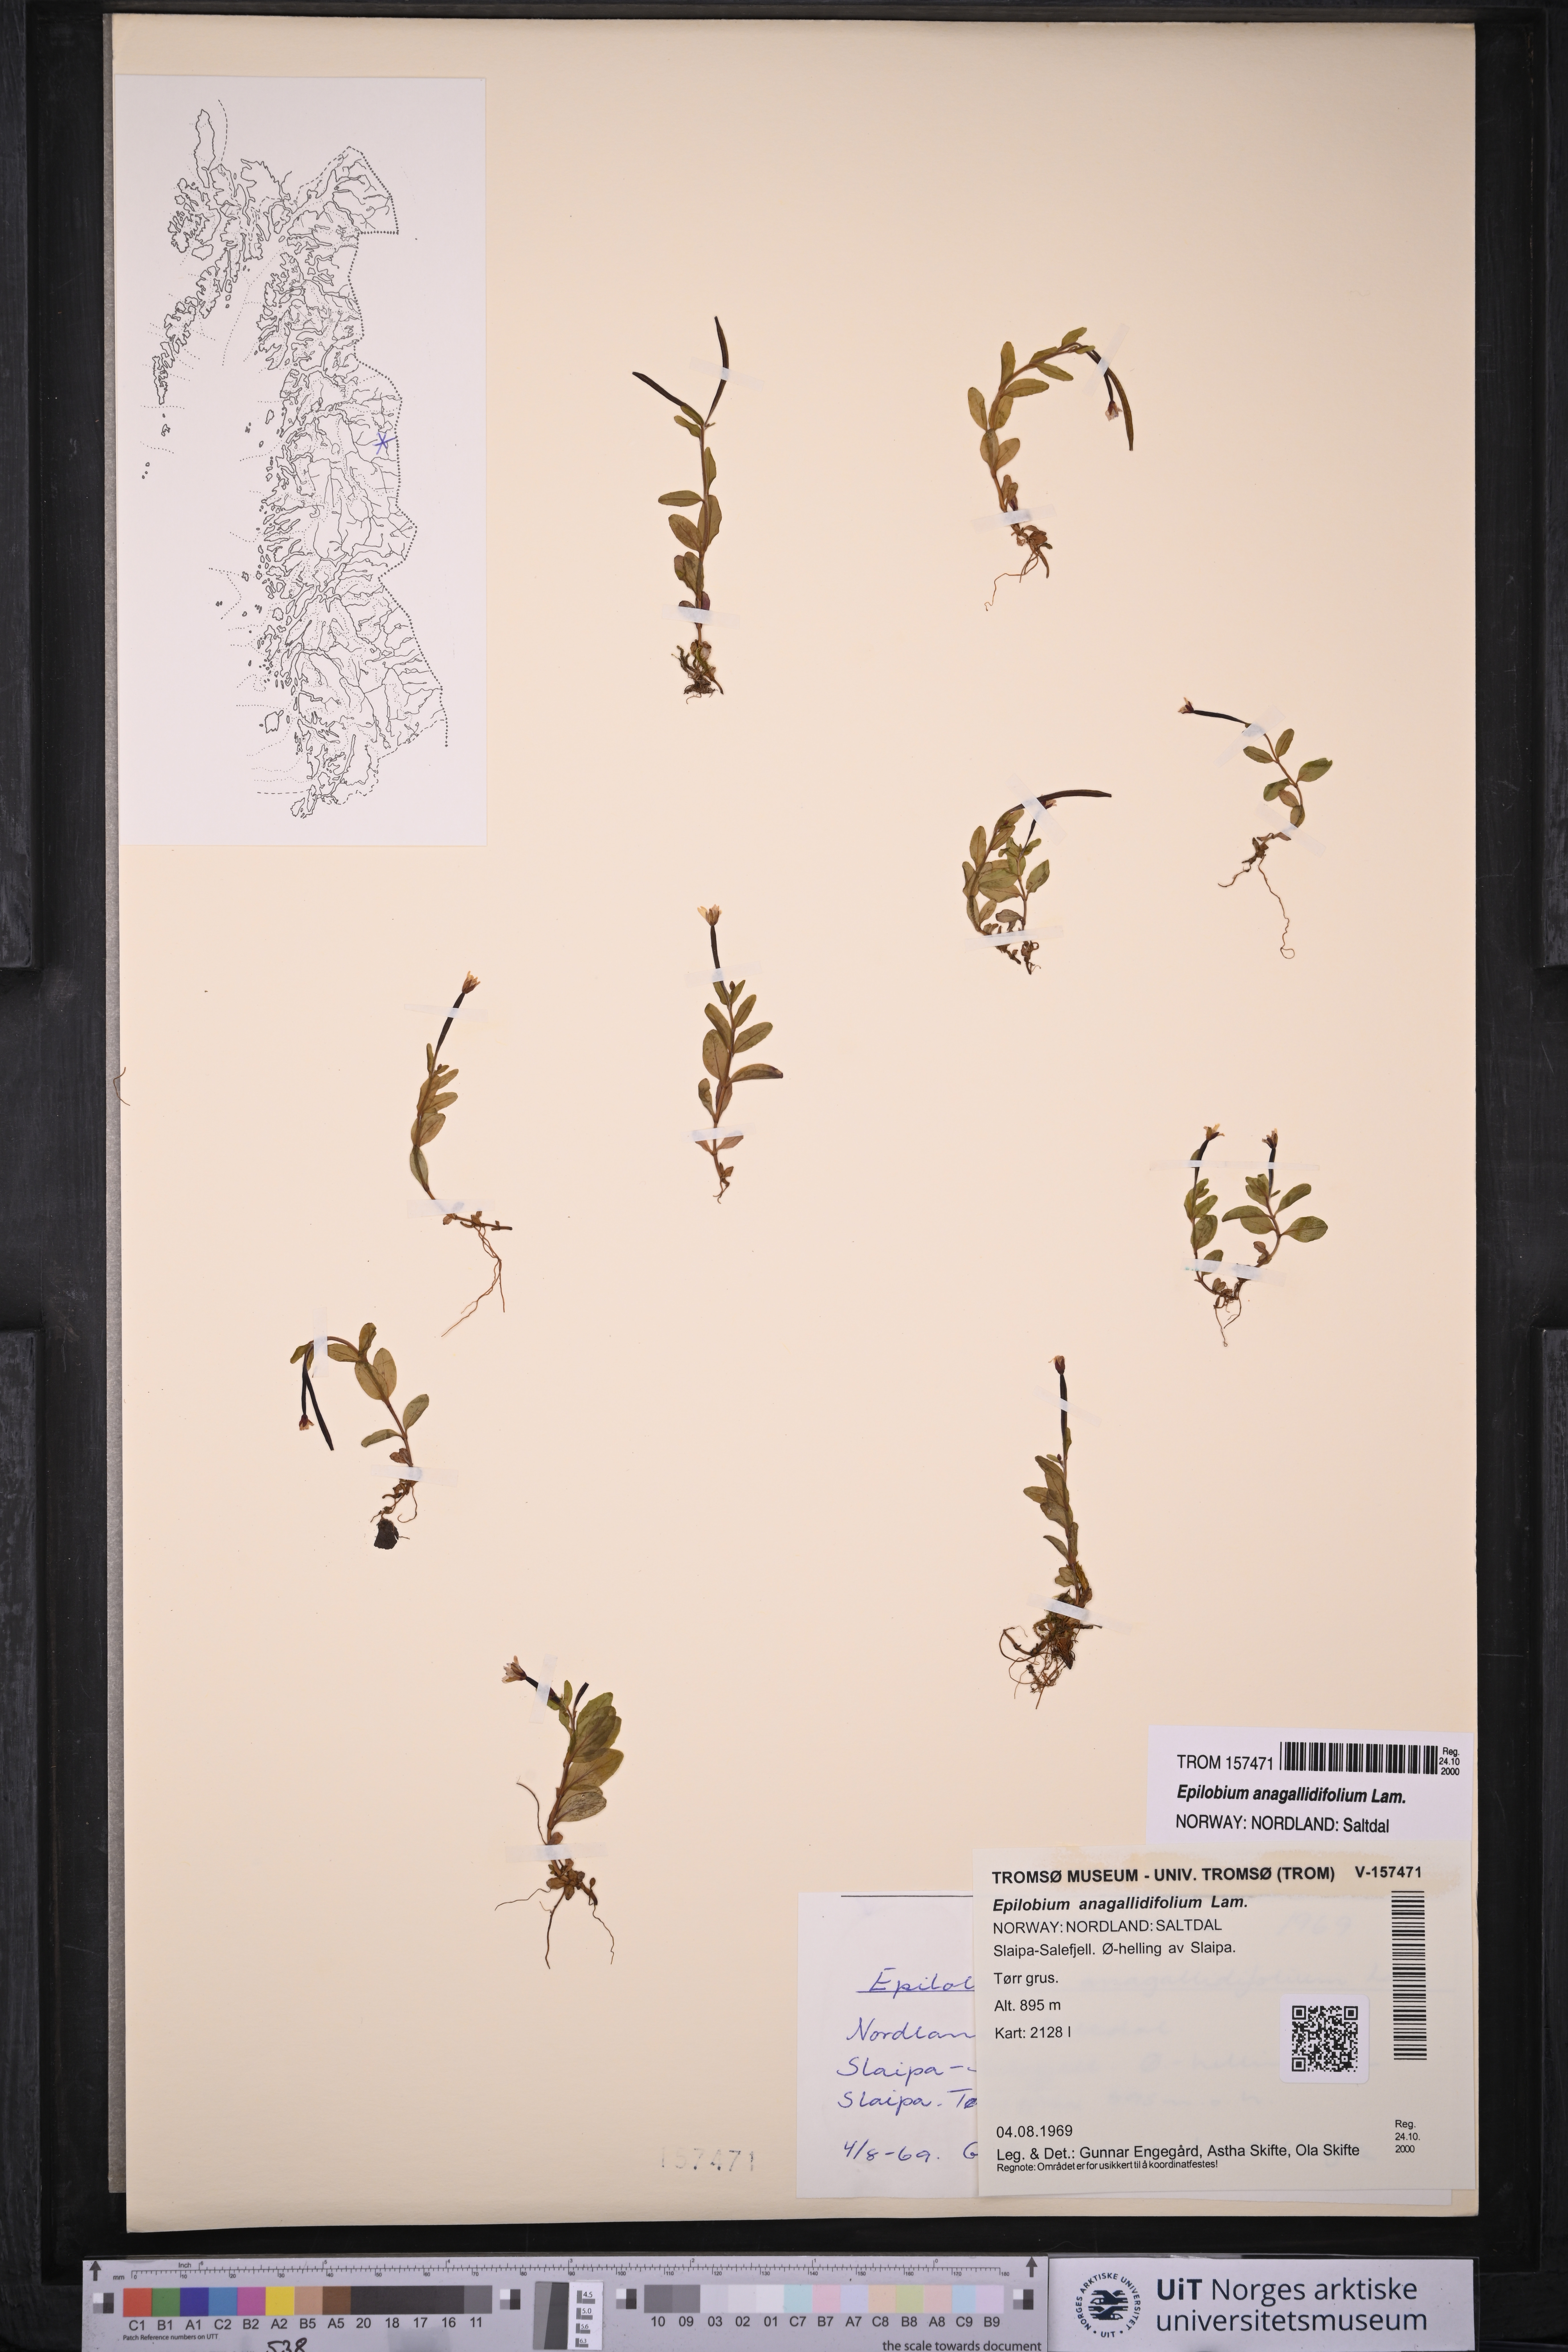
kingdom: Plantae
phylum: Tracheophyta
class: Magnoliopsida
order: Myrtales
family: Onagraceae
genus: Epilobium
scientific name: Epilobium anagallidifolium
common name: Alpine willowherb
